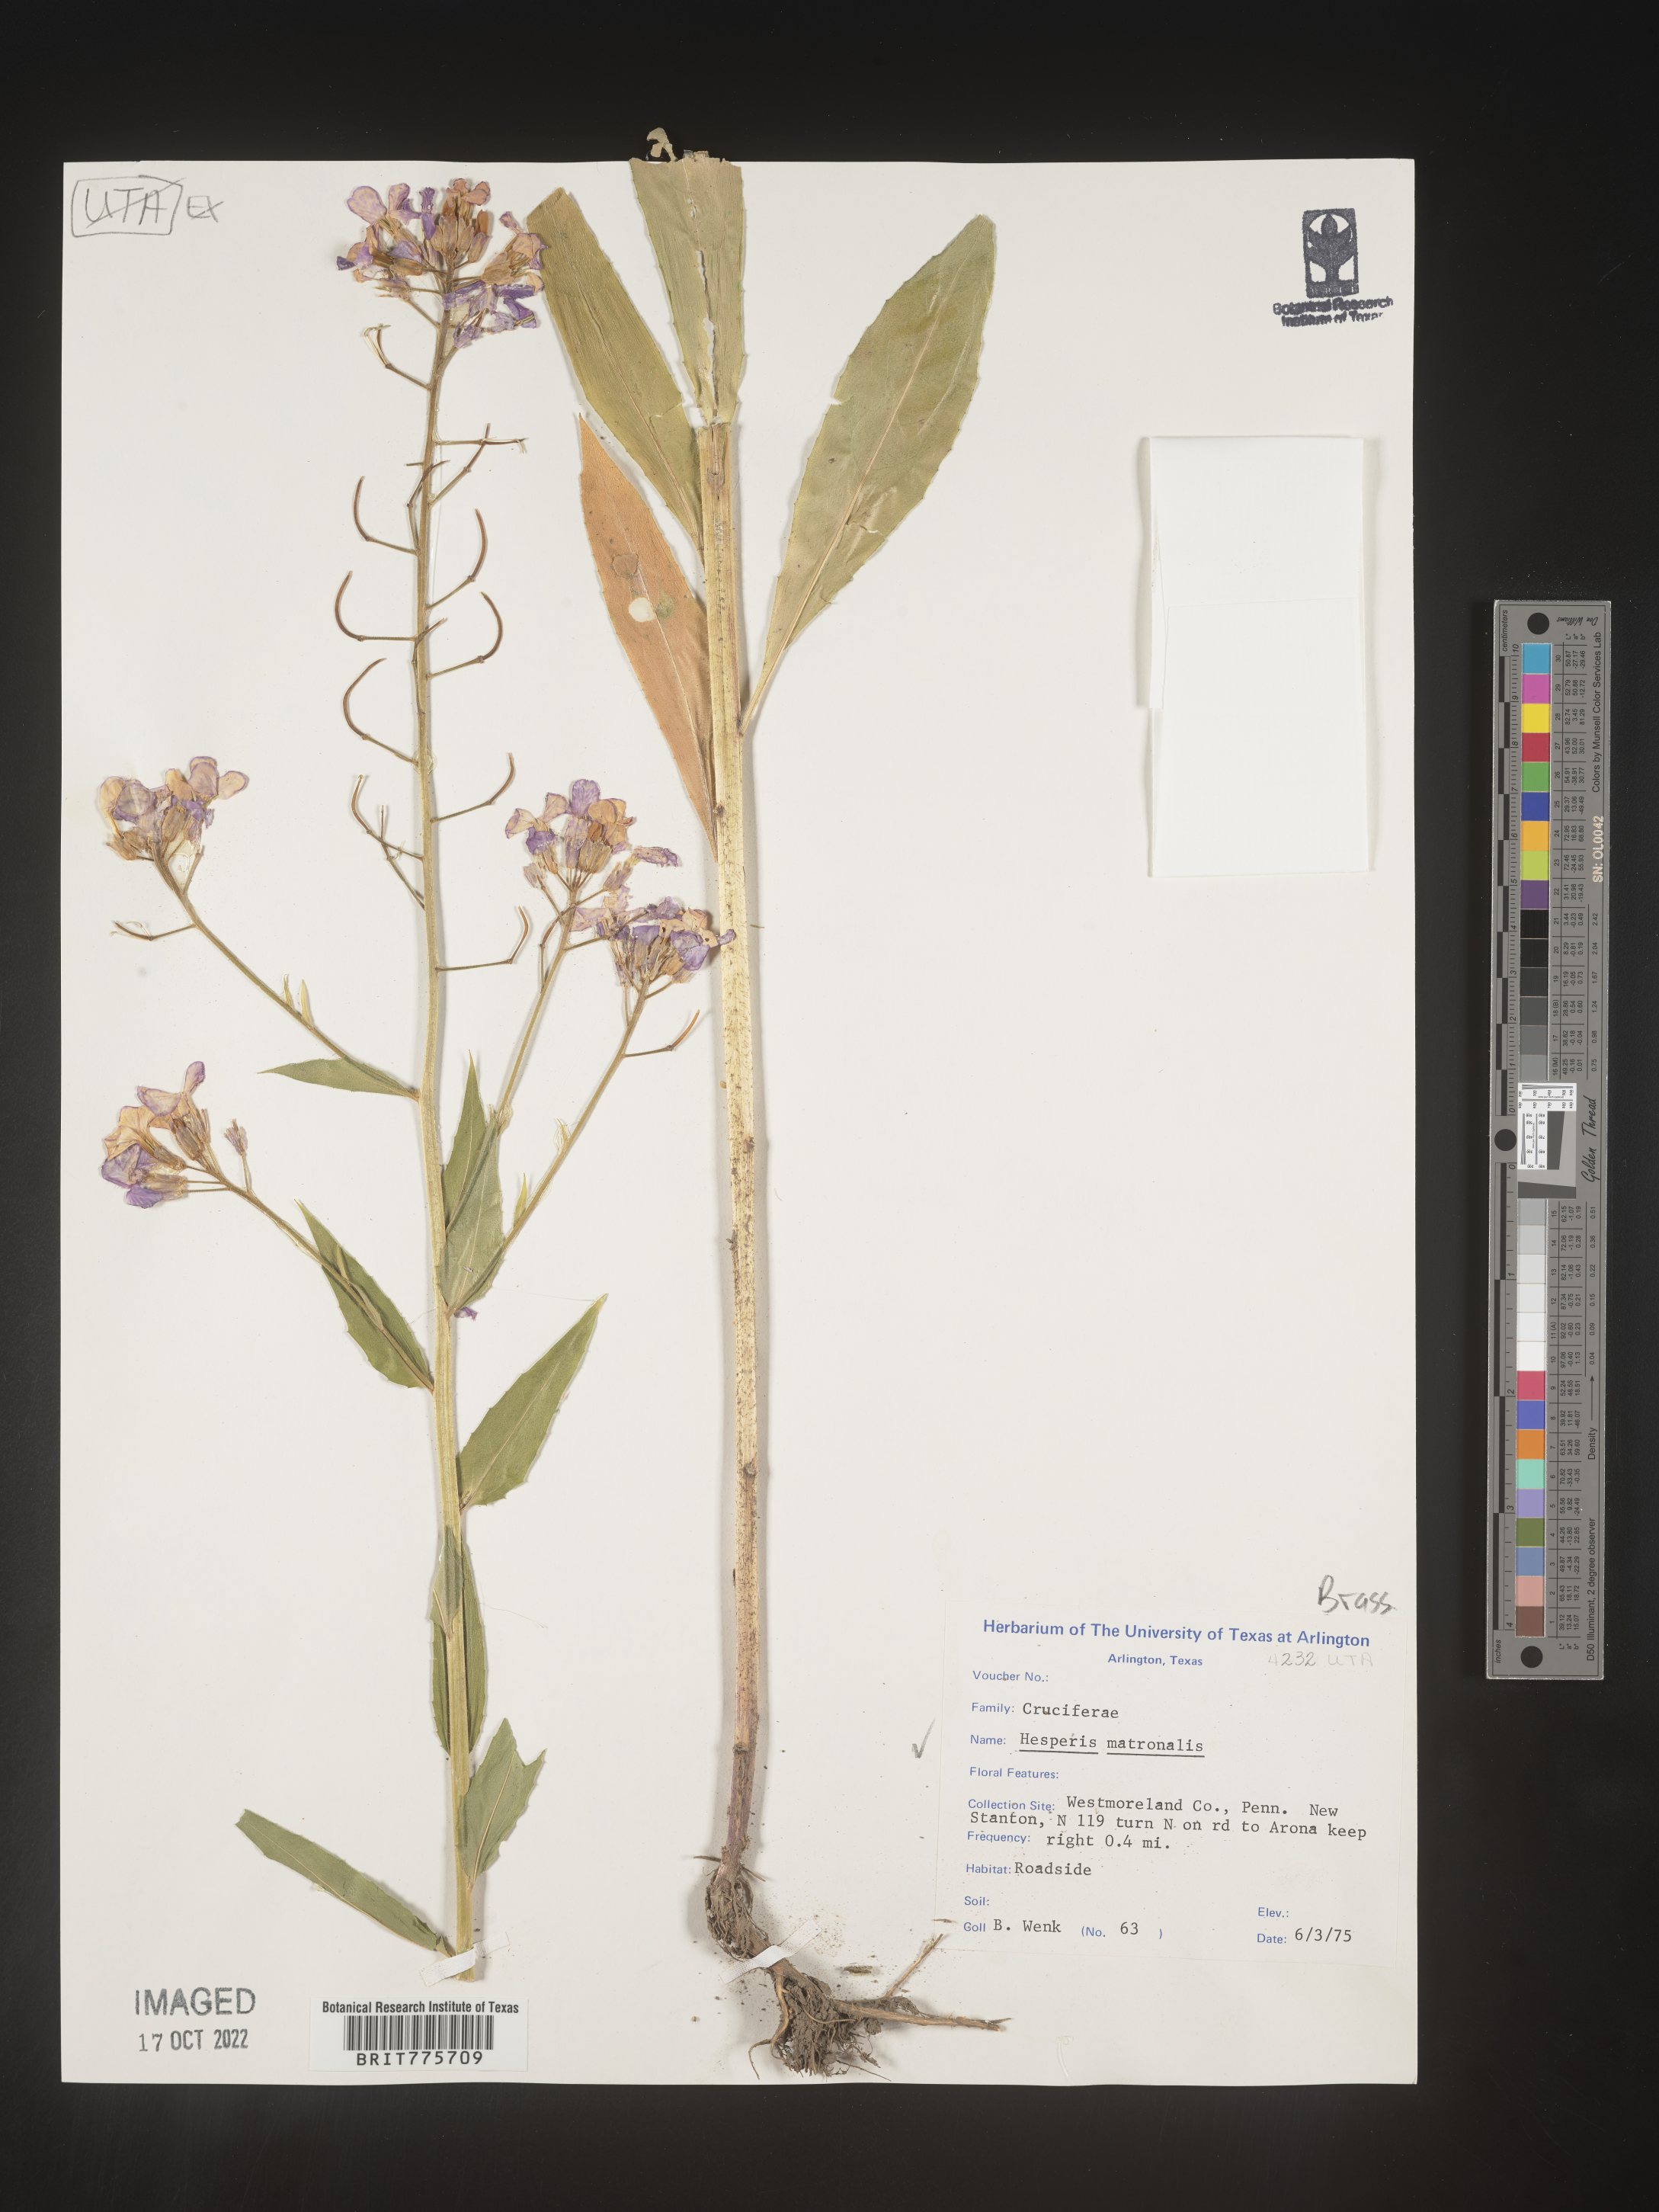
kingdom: Plantae
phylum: Tracheophyta
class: Magnoliopsida
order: Brassicales
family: Brassicaceae
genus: Hesperis
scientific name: Hesperis matronalis
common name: Dame's-violet
